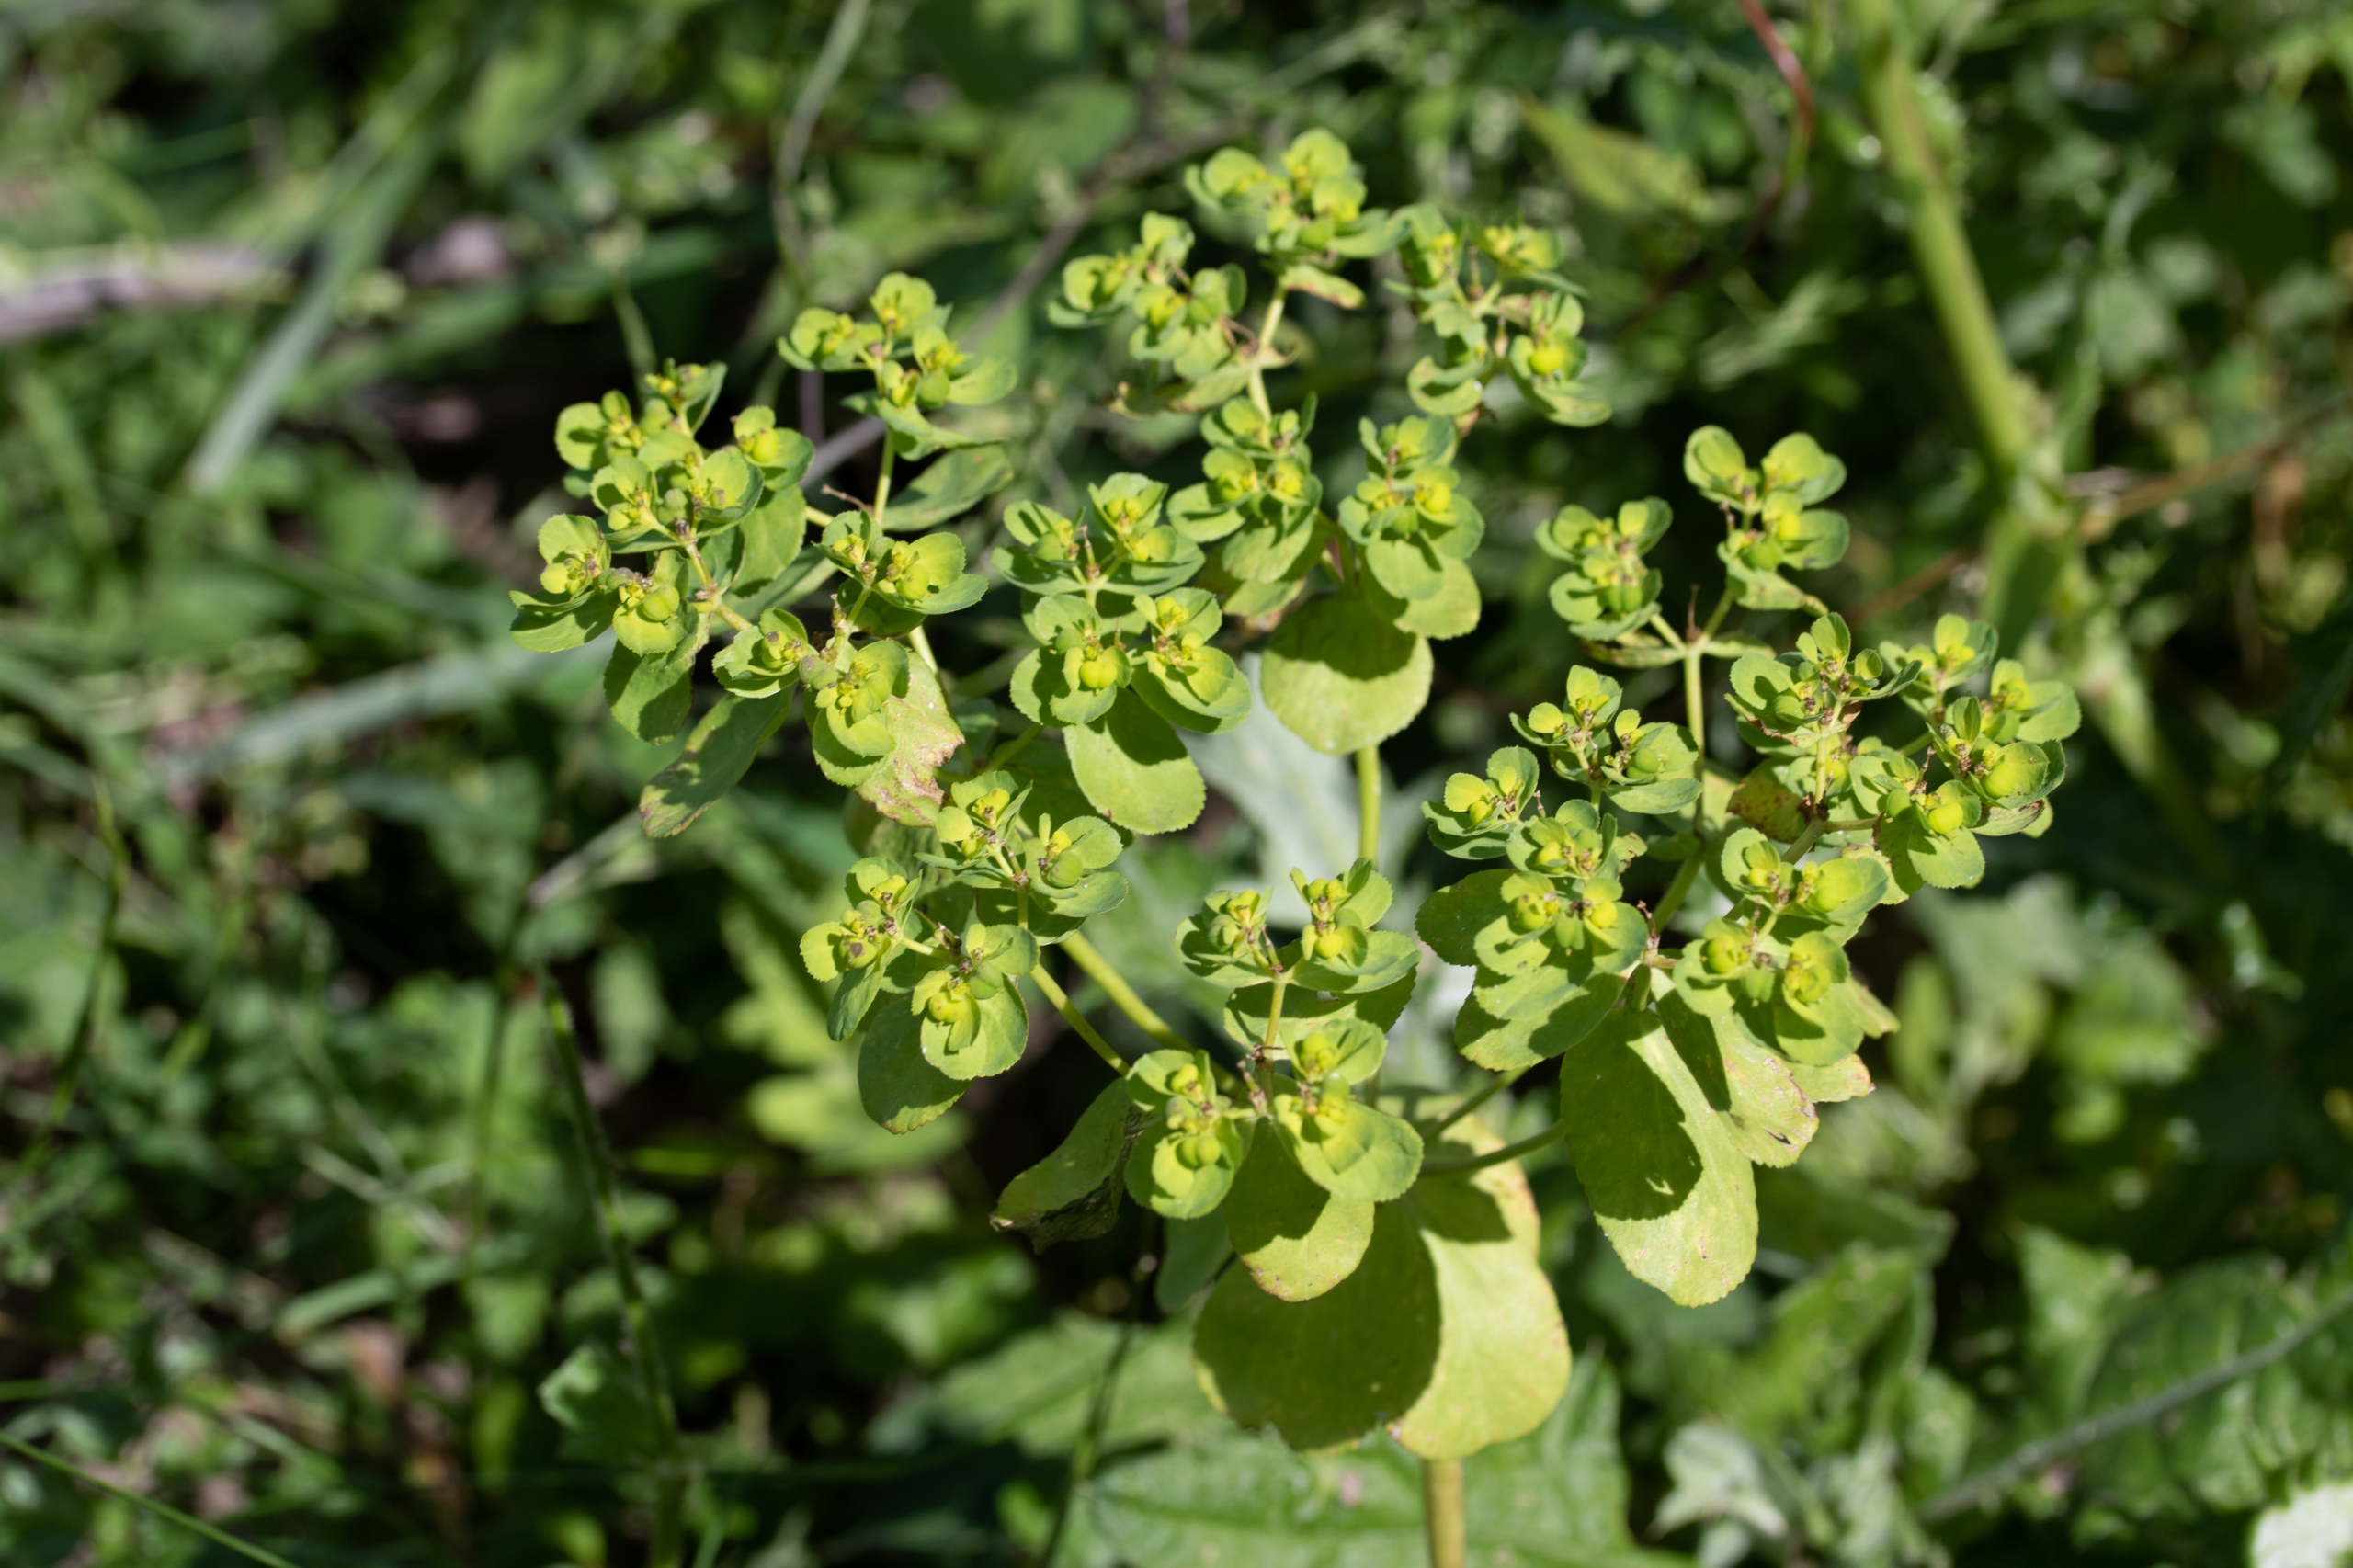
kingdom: Plantae
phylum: Tracheophyta
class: Magnoliopsida
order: Malpighiales
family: Euphorbiaceae
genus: Euphorbia
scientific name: Euphorbia helioscopia
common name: Skærm-vortemælk
